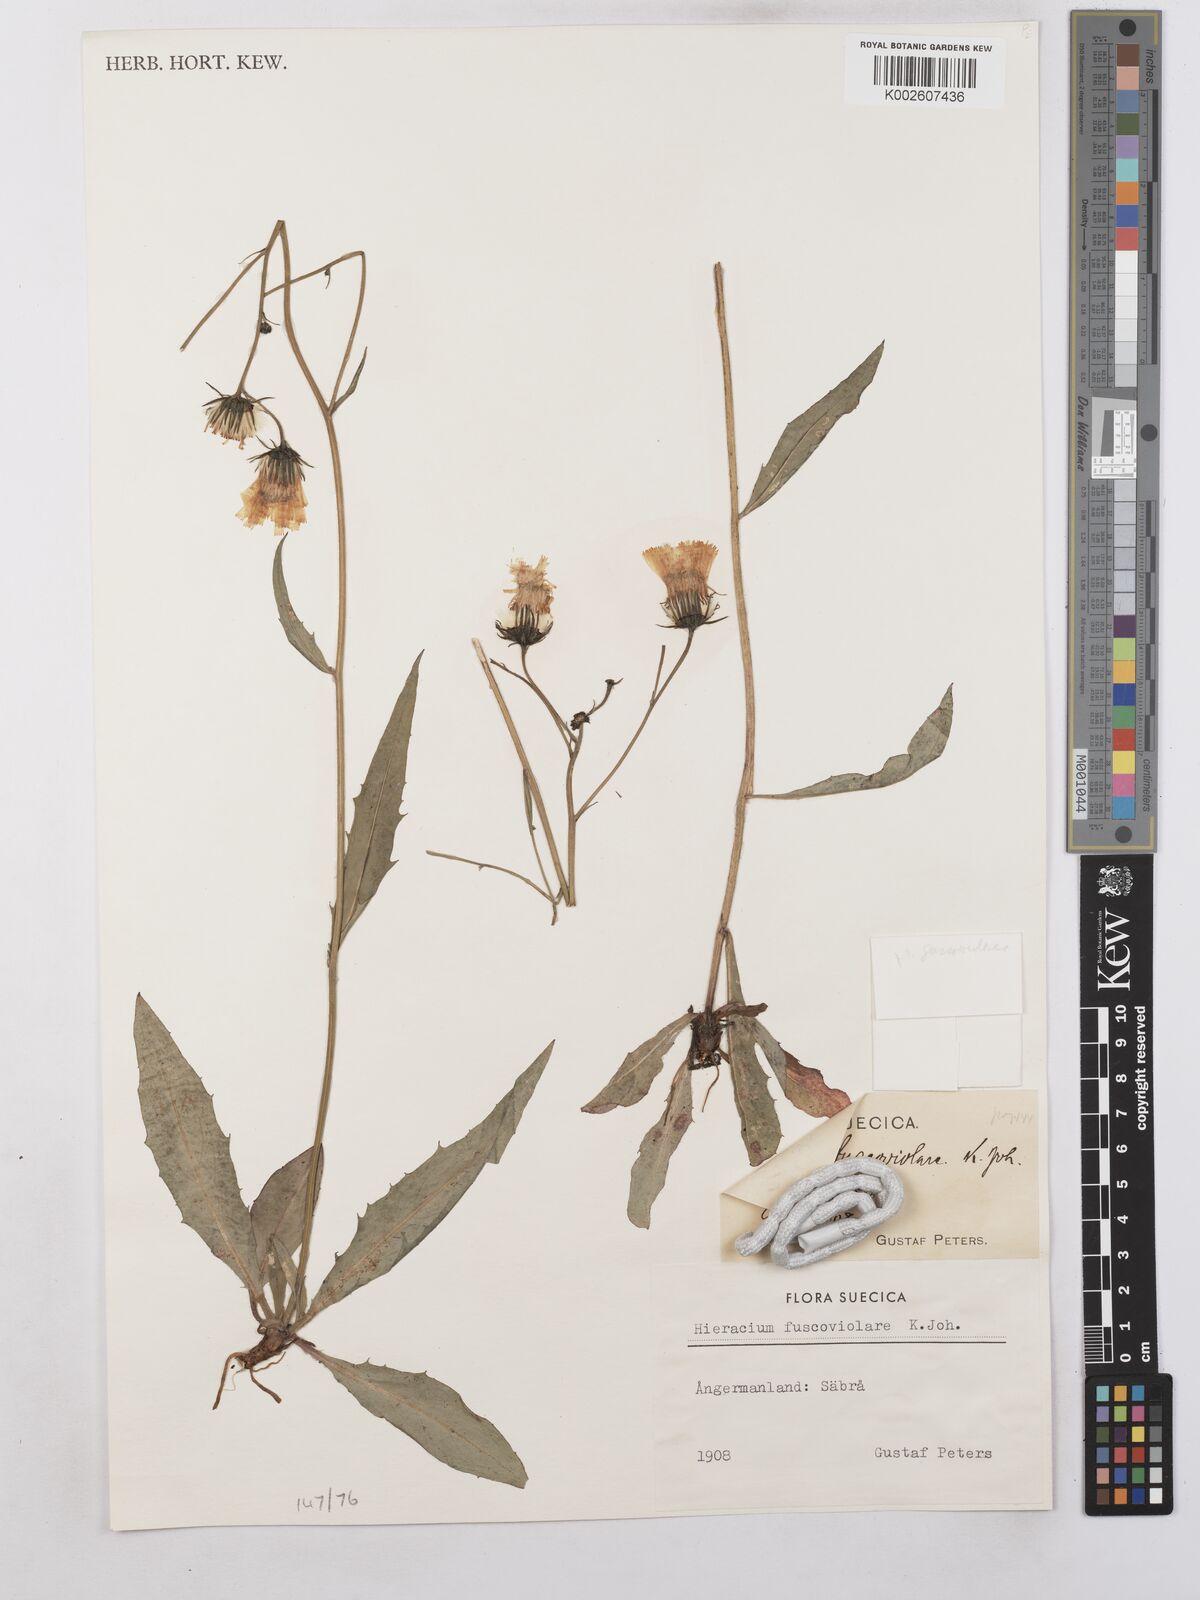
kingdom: Plantae
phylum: Tracheophyta
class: Magnoliopsida
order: Asterales
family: Asteraceae
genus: Hieracium
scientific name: Hieracium caesium
